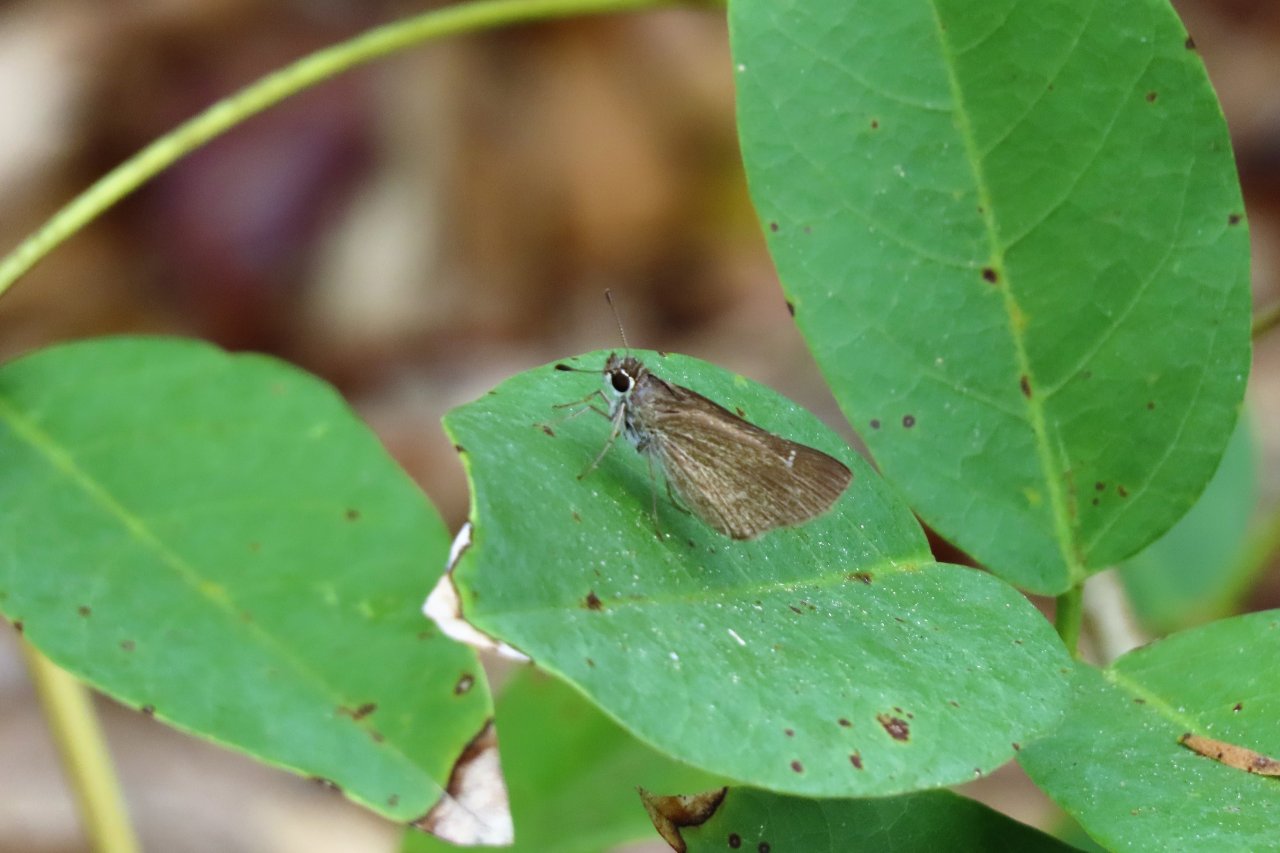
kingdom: Animalia
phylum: Arthropoda
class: Insecta
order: Lepidoptera
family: Hesperiidae
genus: Lerodea
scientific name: Lerodea eufala
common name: Eufala Skipper
